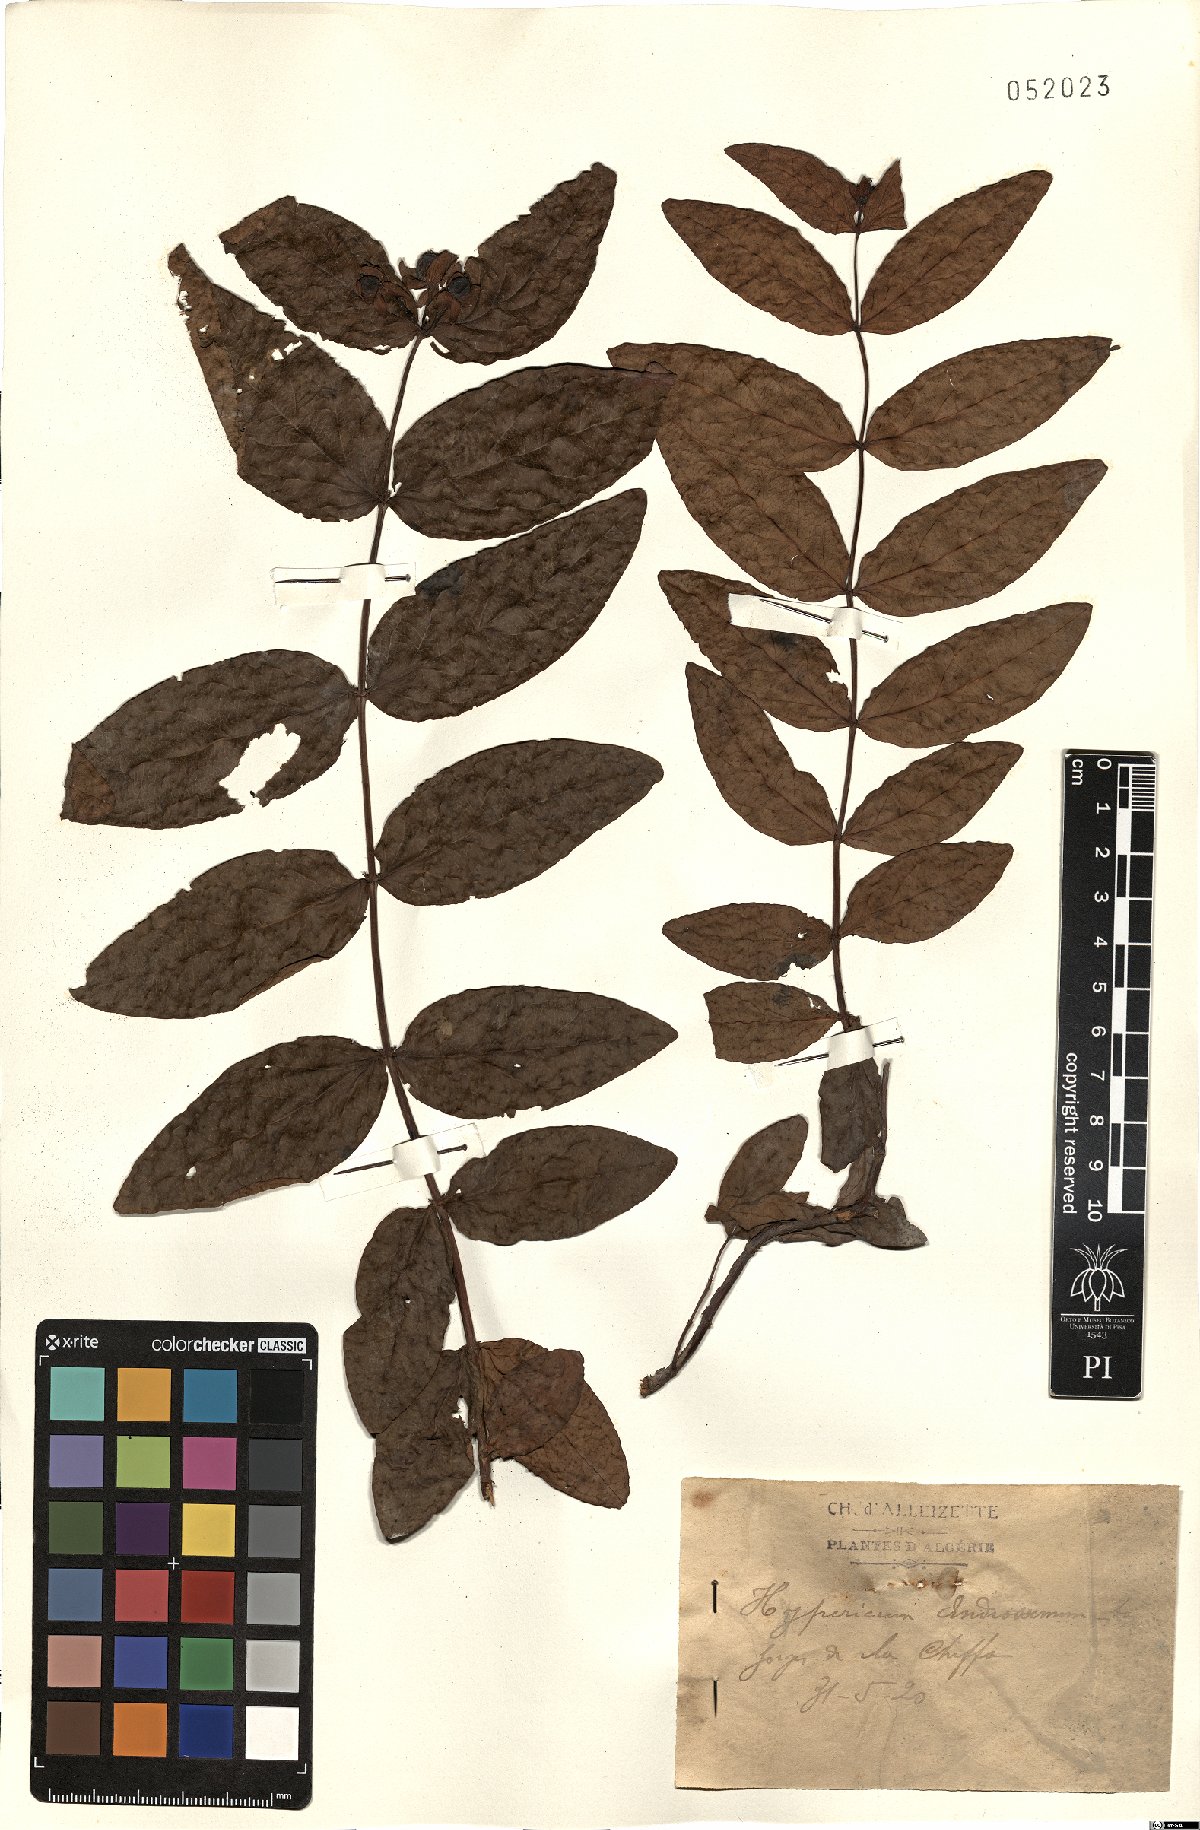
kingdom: Plantae
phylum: Tracheophyta
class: Magnoliopsida
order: Malpighiales
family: Hypericaceae
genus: Hypericum
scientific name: Hypericum androsaemum
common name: Sweet-amber
